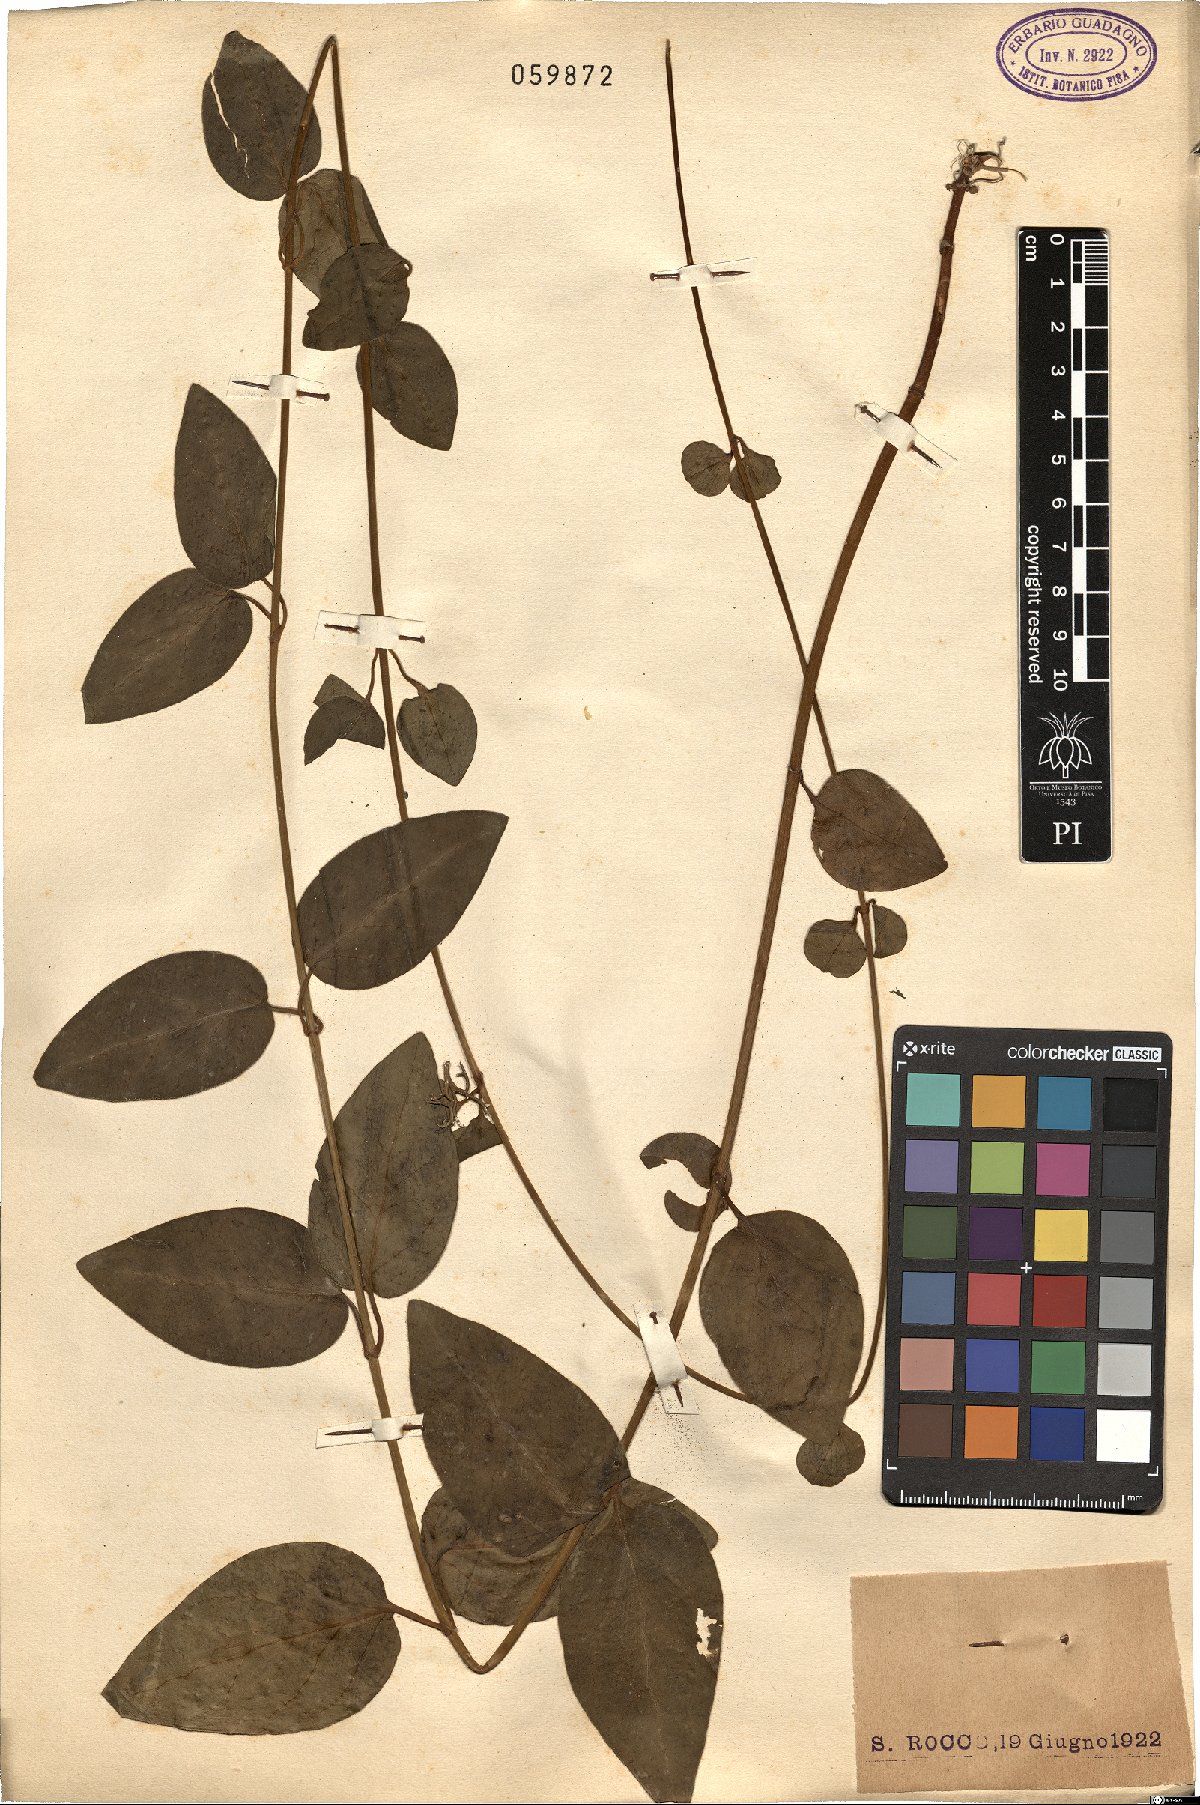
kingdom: Plantae
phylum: Tracheophyta
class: Magnoliopsida
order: Gentianales
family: Apocynaceae
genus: Vinca
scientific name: Vinca major
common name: Greater periwinkle
